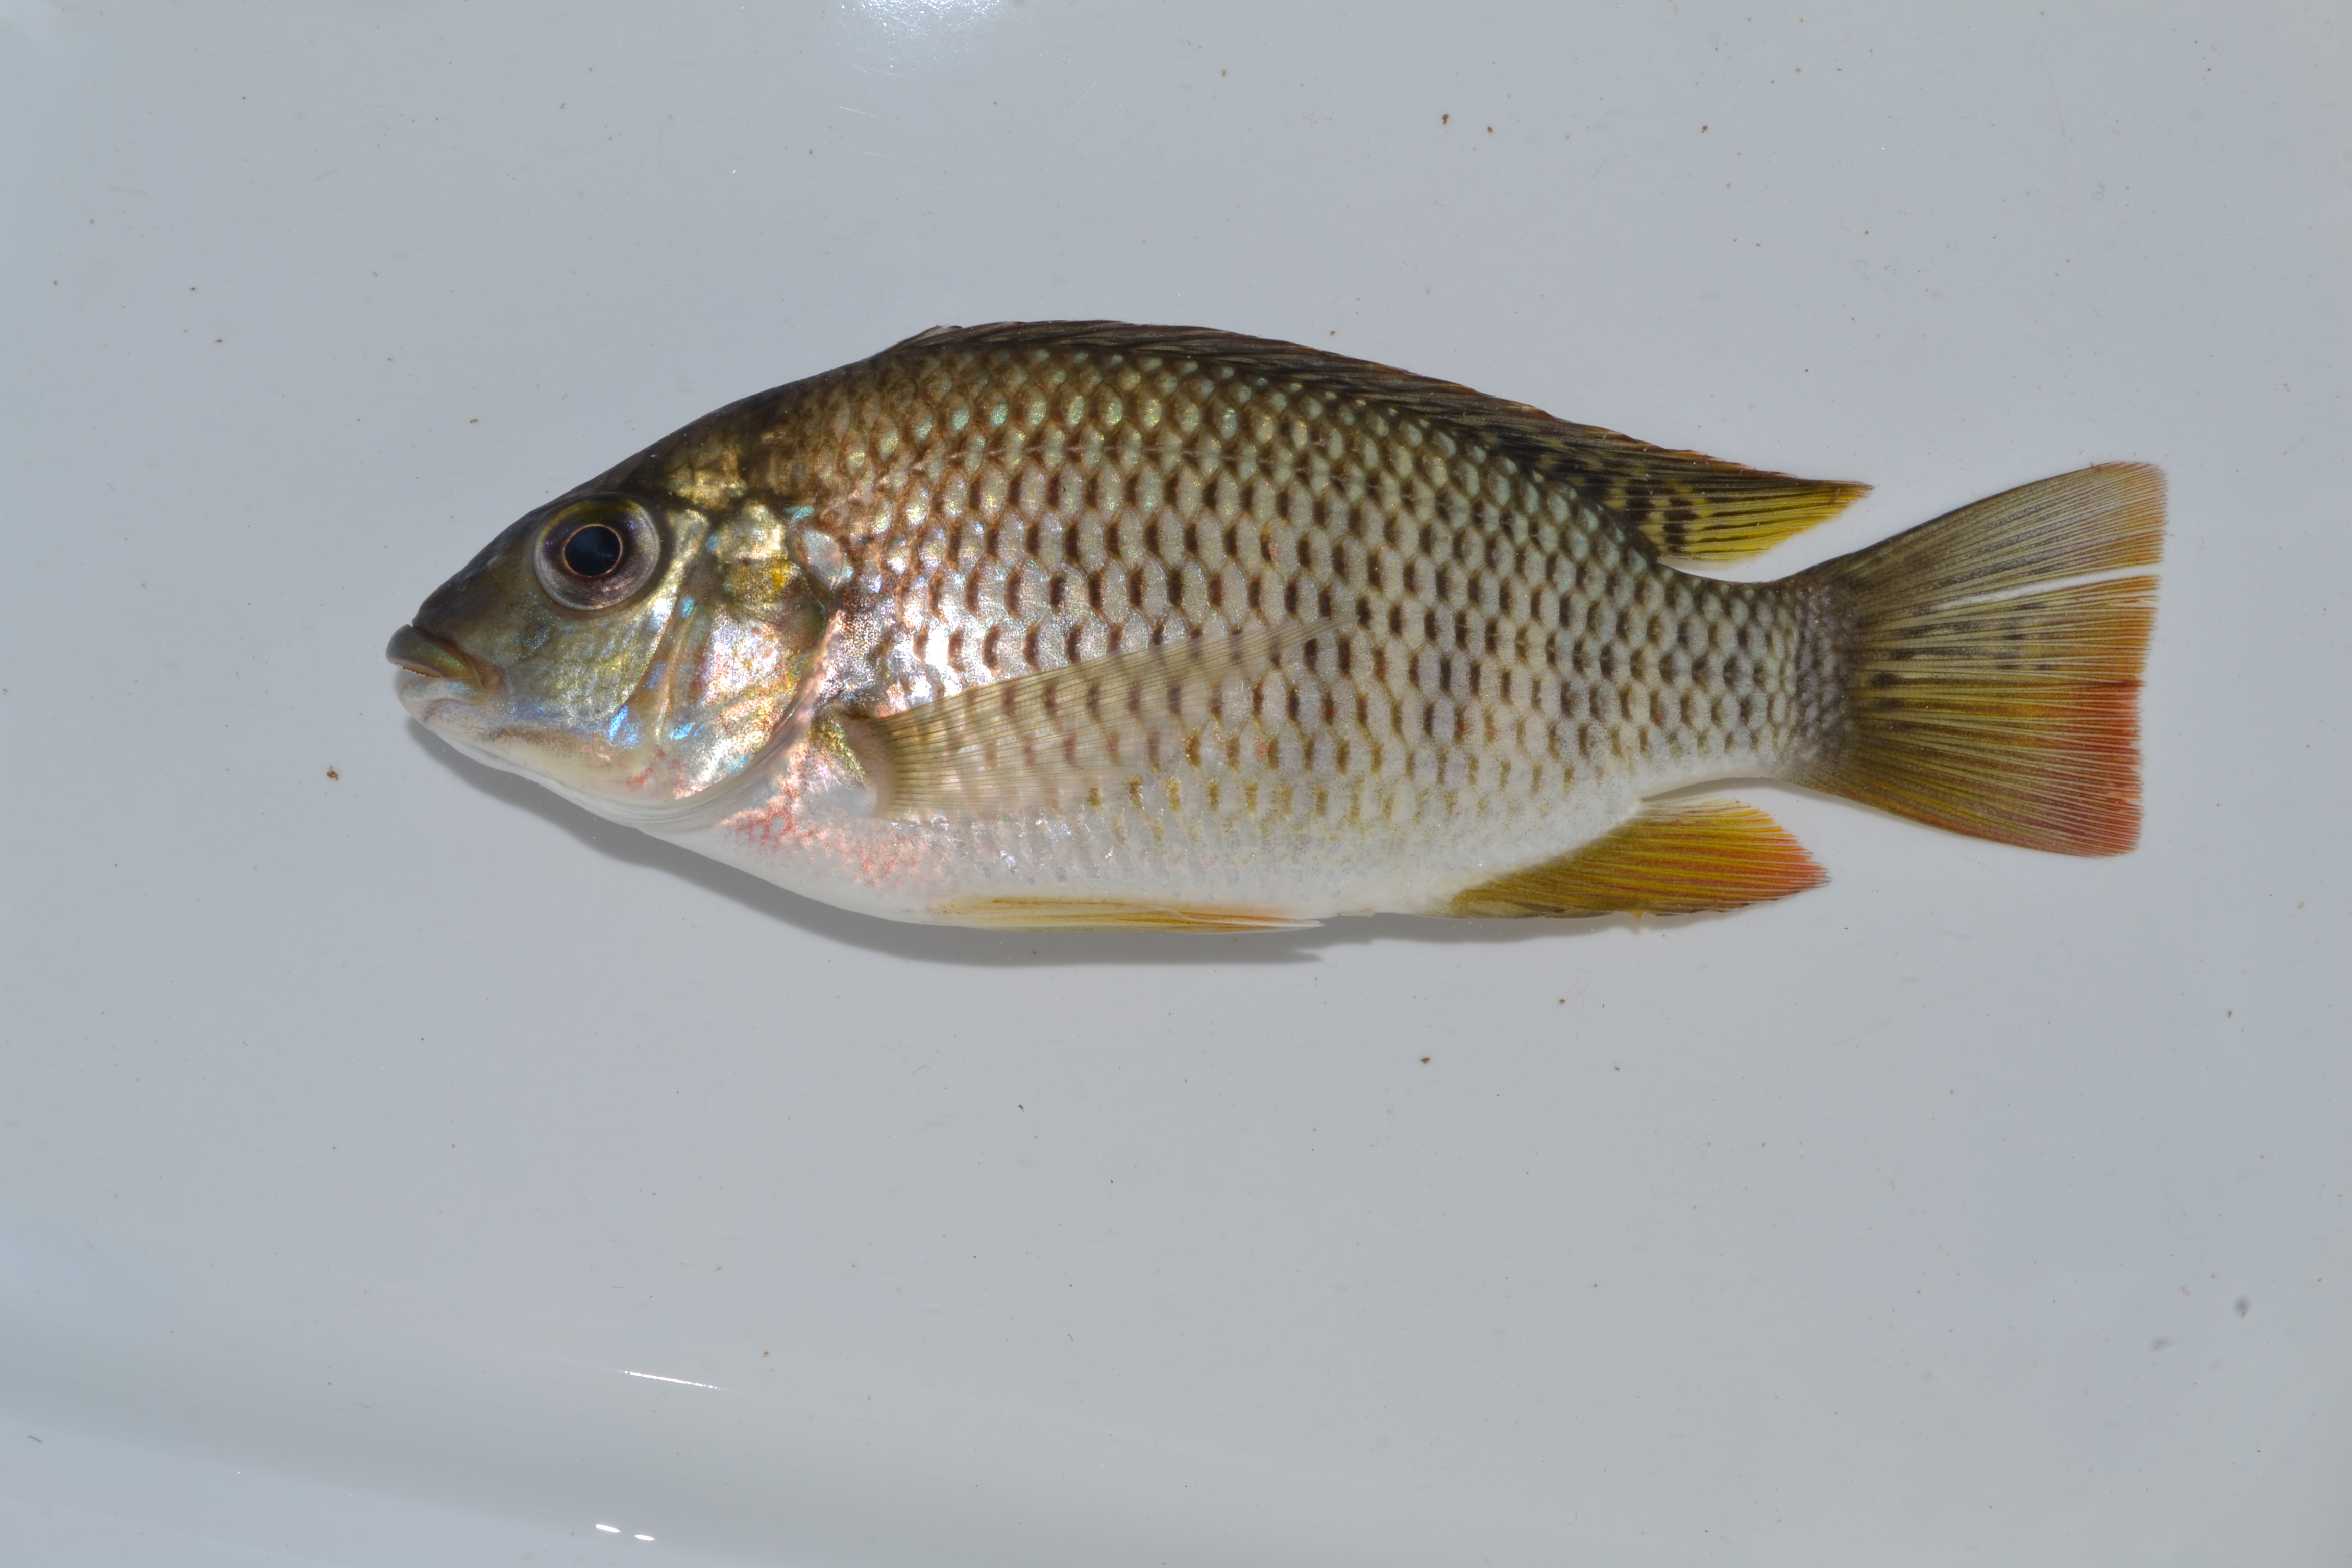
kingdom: Animalia
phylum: Chordata
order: Perciformes
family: Cichlidae
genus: Coptodon
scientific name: Coptodon rendalli
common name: Redbreast tilapia
